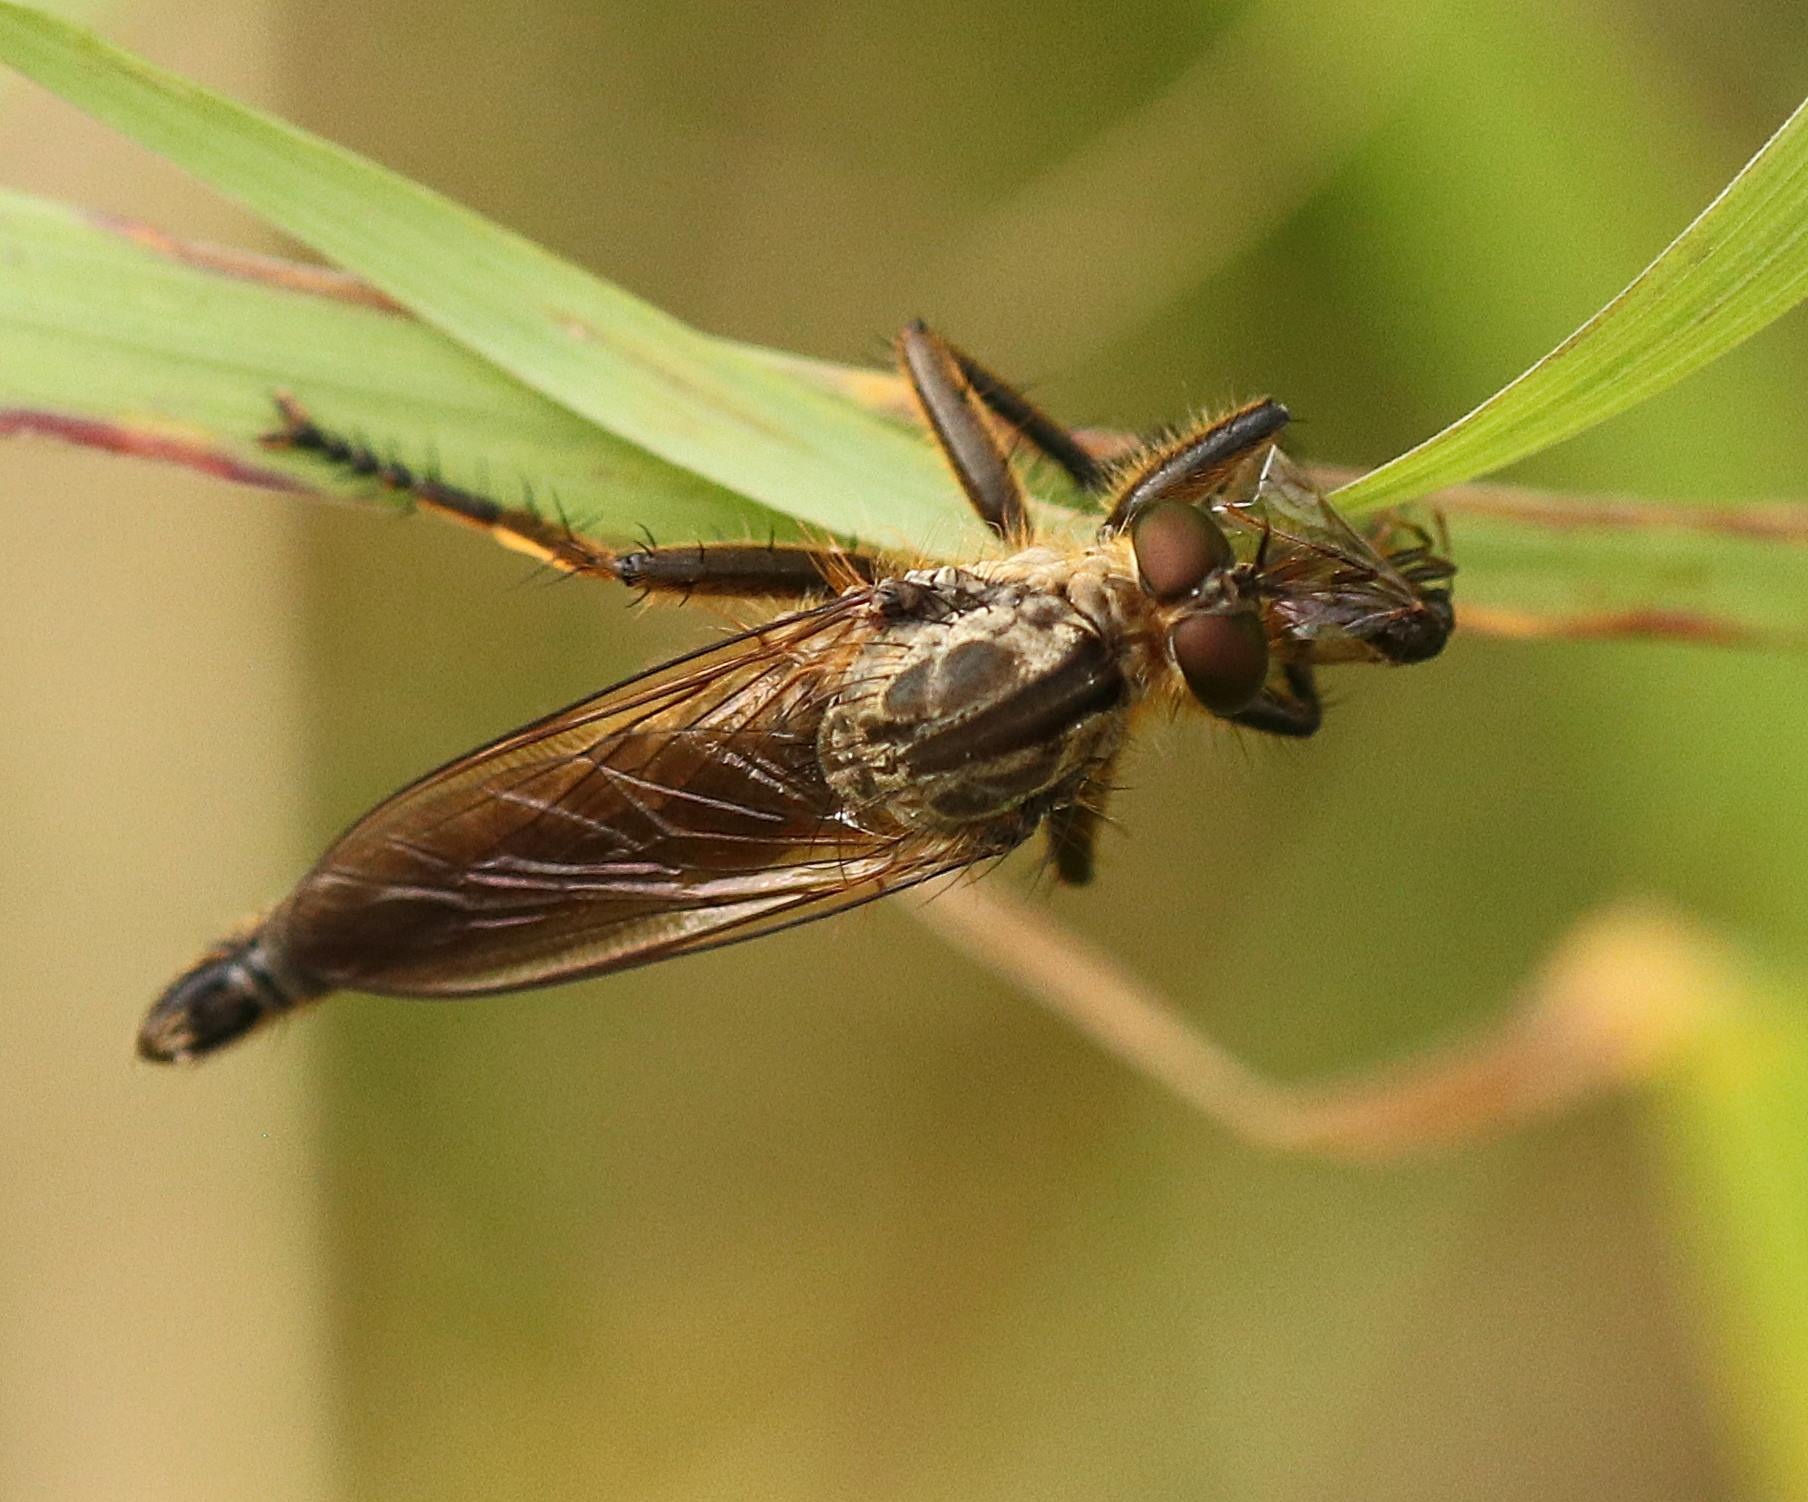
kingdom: Animalia
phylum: Arthropoda
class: Insecta
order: Diptera
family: Asilidae
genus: Eutolmus
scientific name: Eutolmus rufibarbis
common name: Rød skægrovflue
